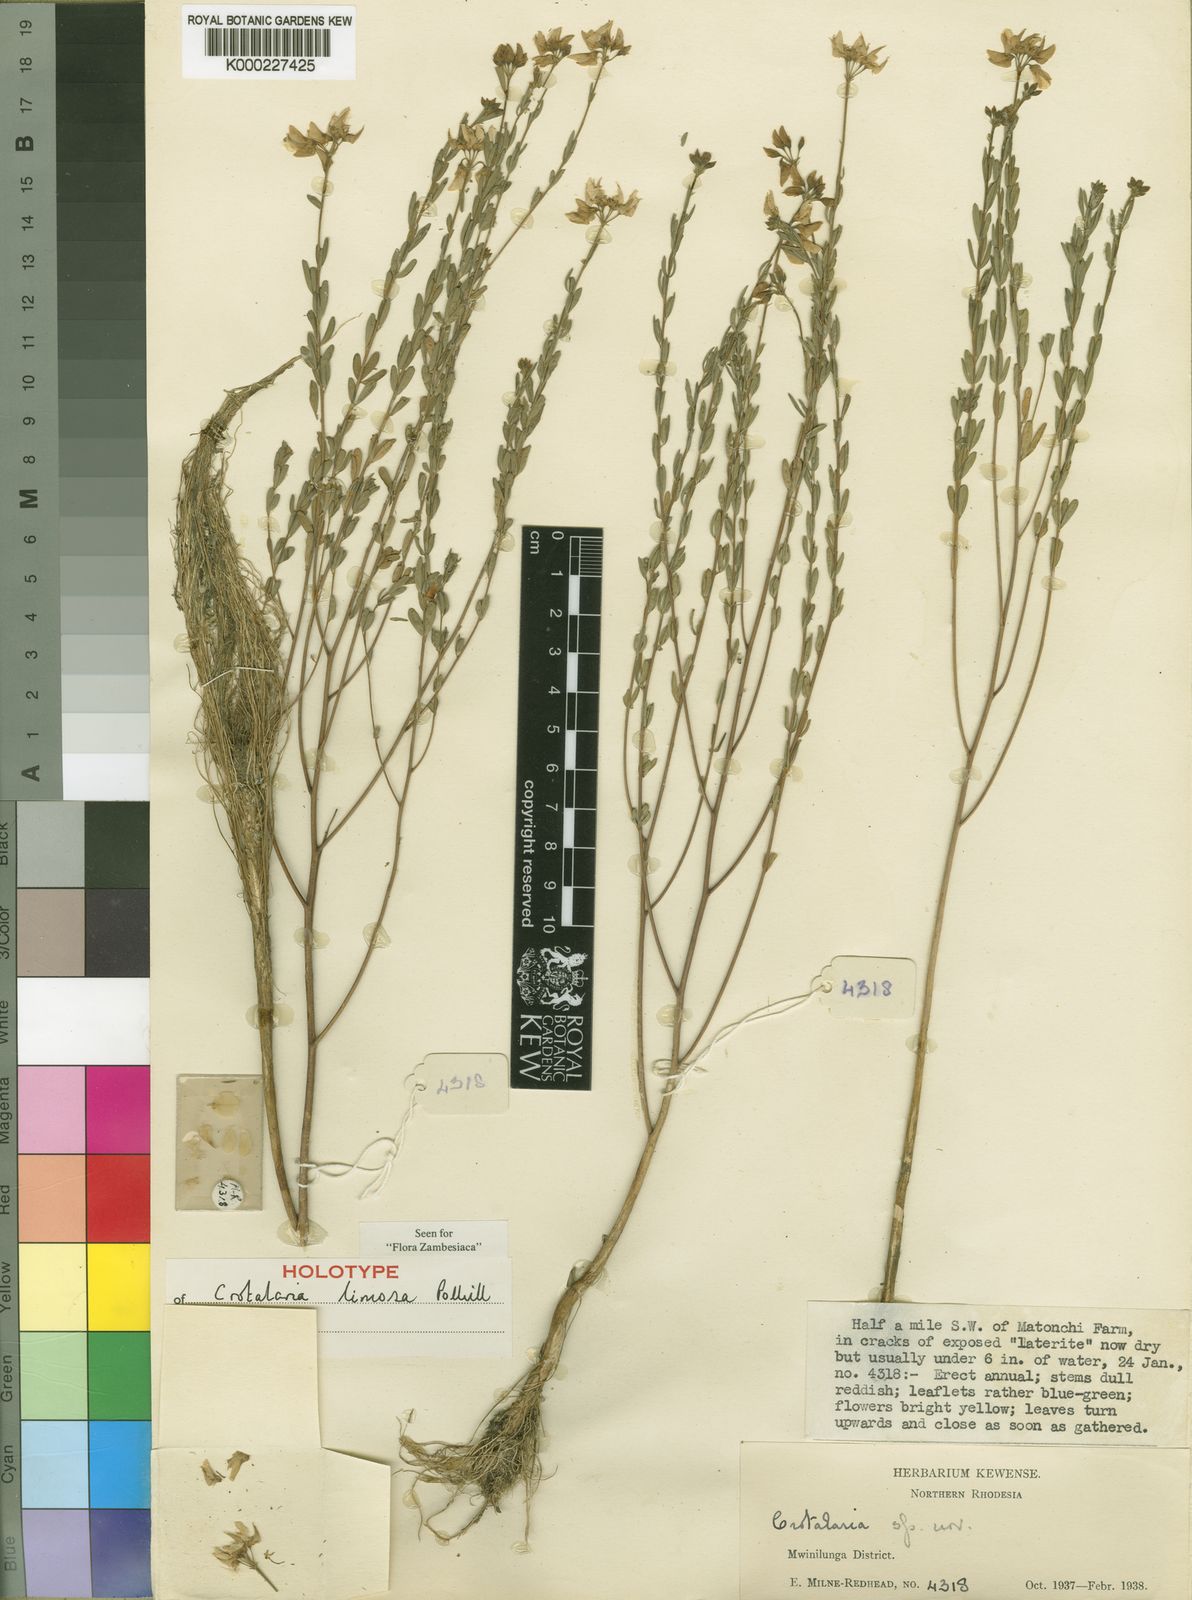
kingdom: Plantae
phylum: Tracheophyta
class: Magnoliopsida
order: Fabales
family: Fabaceae
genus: Crotalaria
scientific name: Crotalaria limosa
